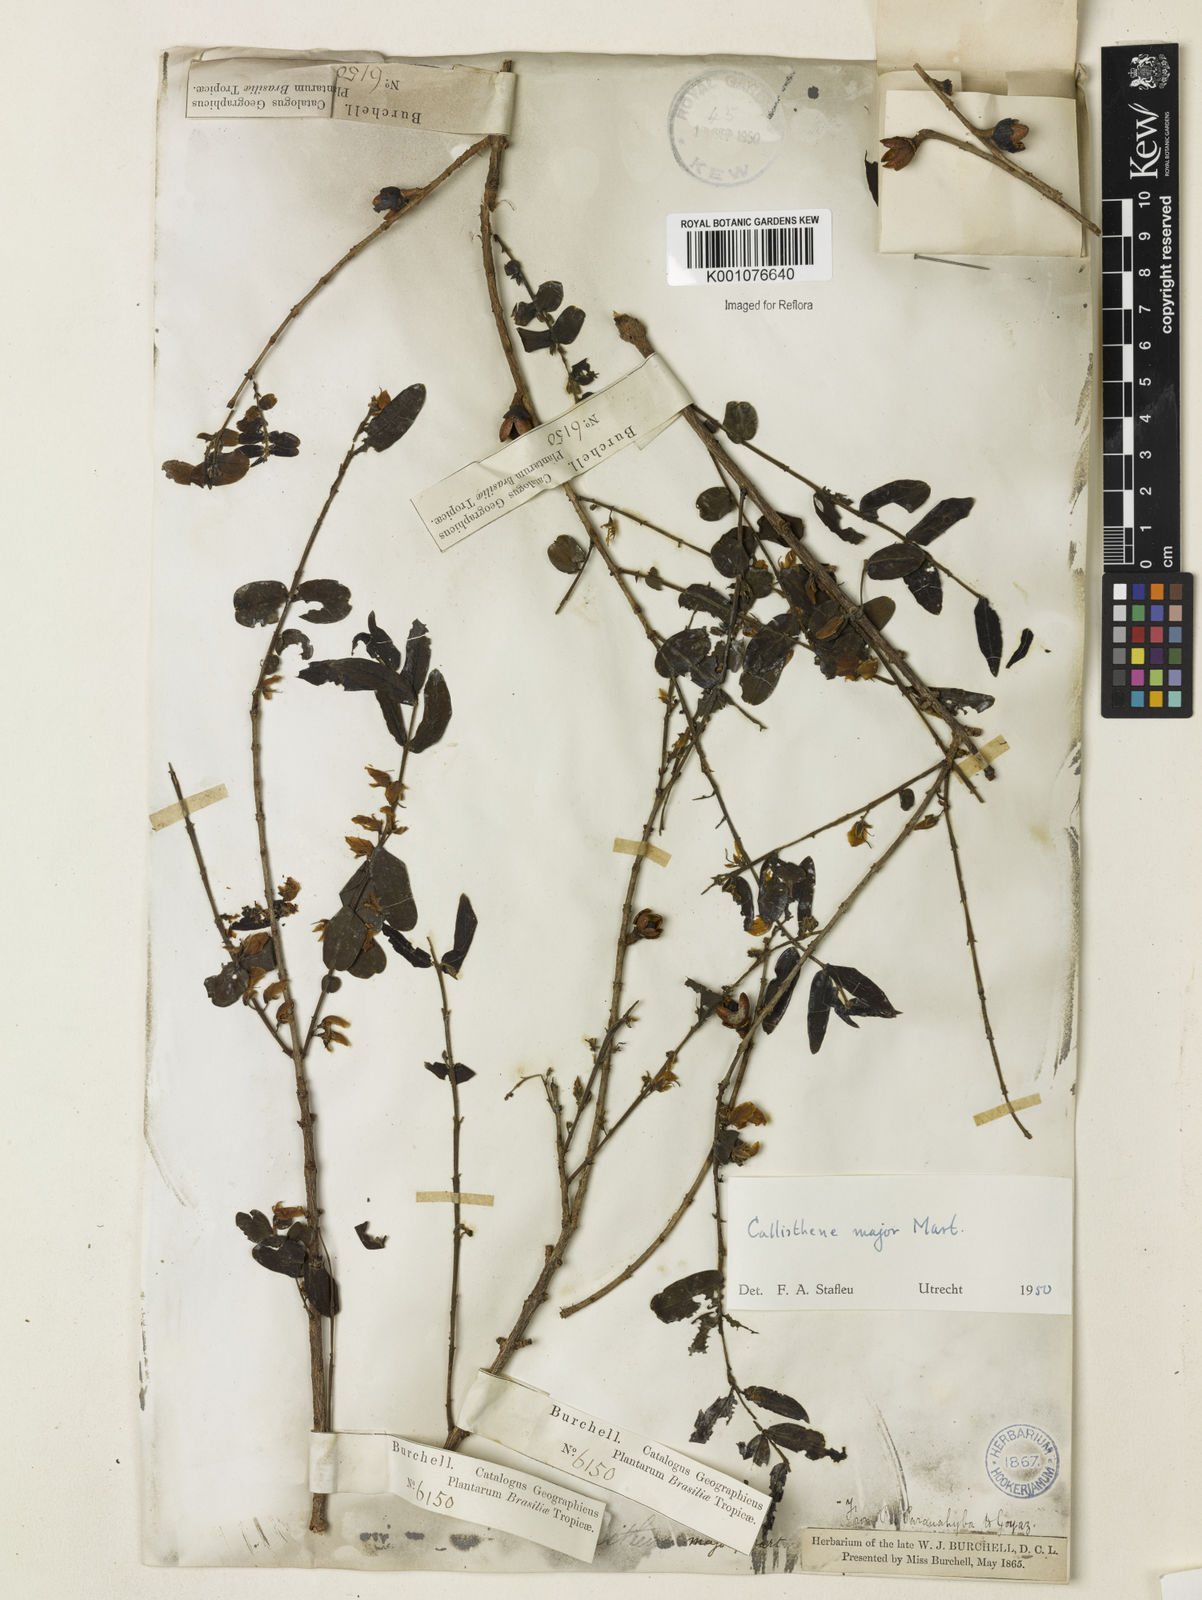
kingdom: Plantae
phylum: Tracheophyta
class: Magnoliopsida
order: Myrtales
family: Vochysiaceae
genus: Callisthene
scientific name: Callisthene major
